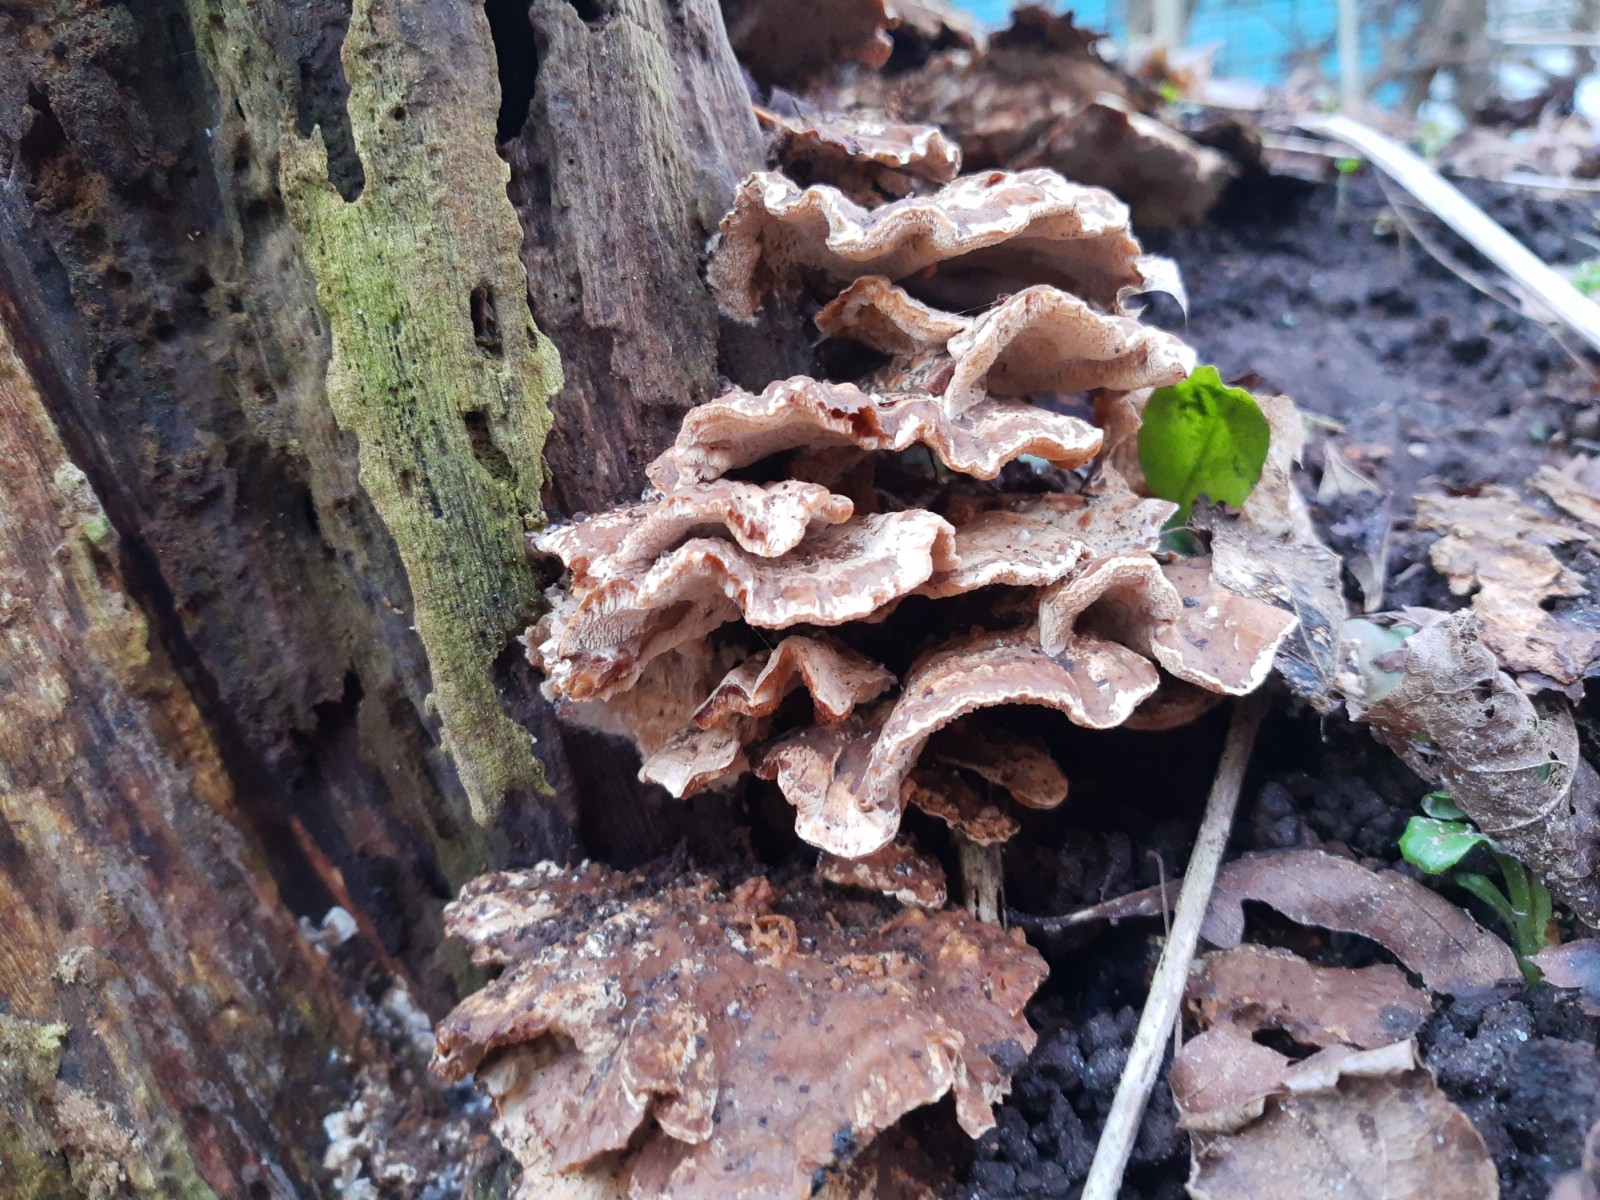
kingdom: Fungi
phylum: Basidiomycota
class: Agaricomycetes
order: Polyporales
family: Phanerochaetaceae
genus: Bjerkandera
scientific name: Bjerkandera fumosa
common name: grågul sodporesvamp
